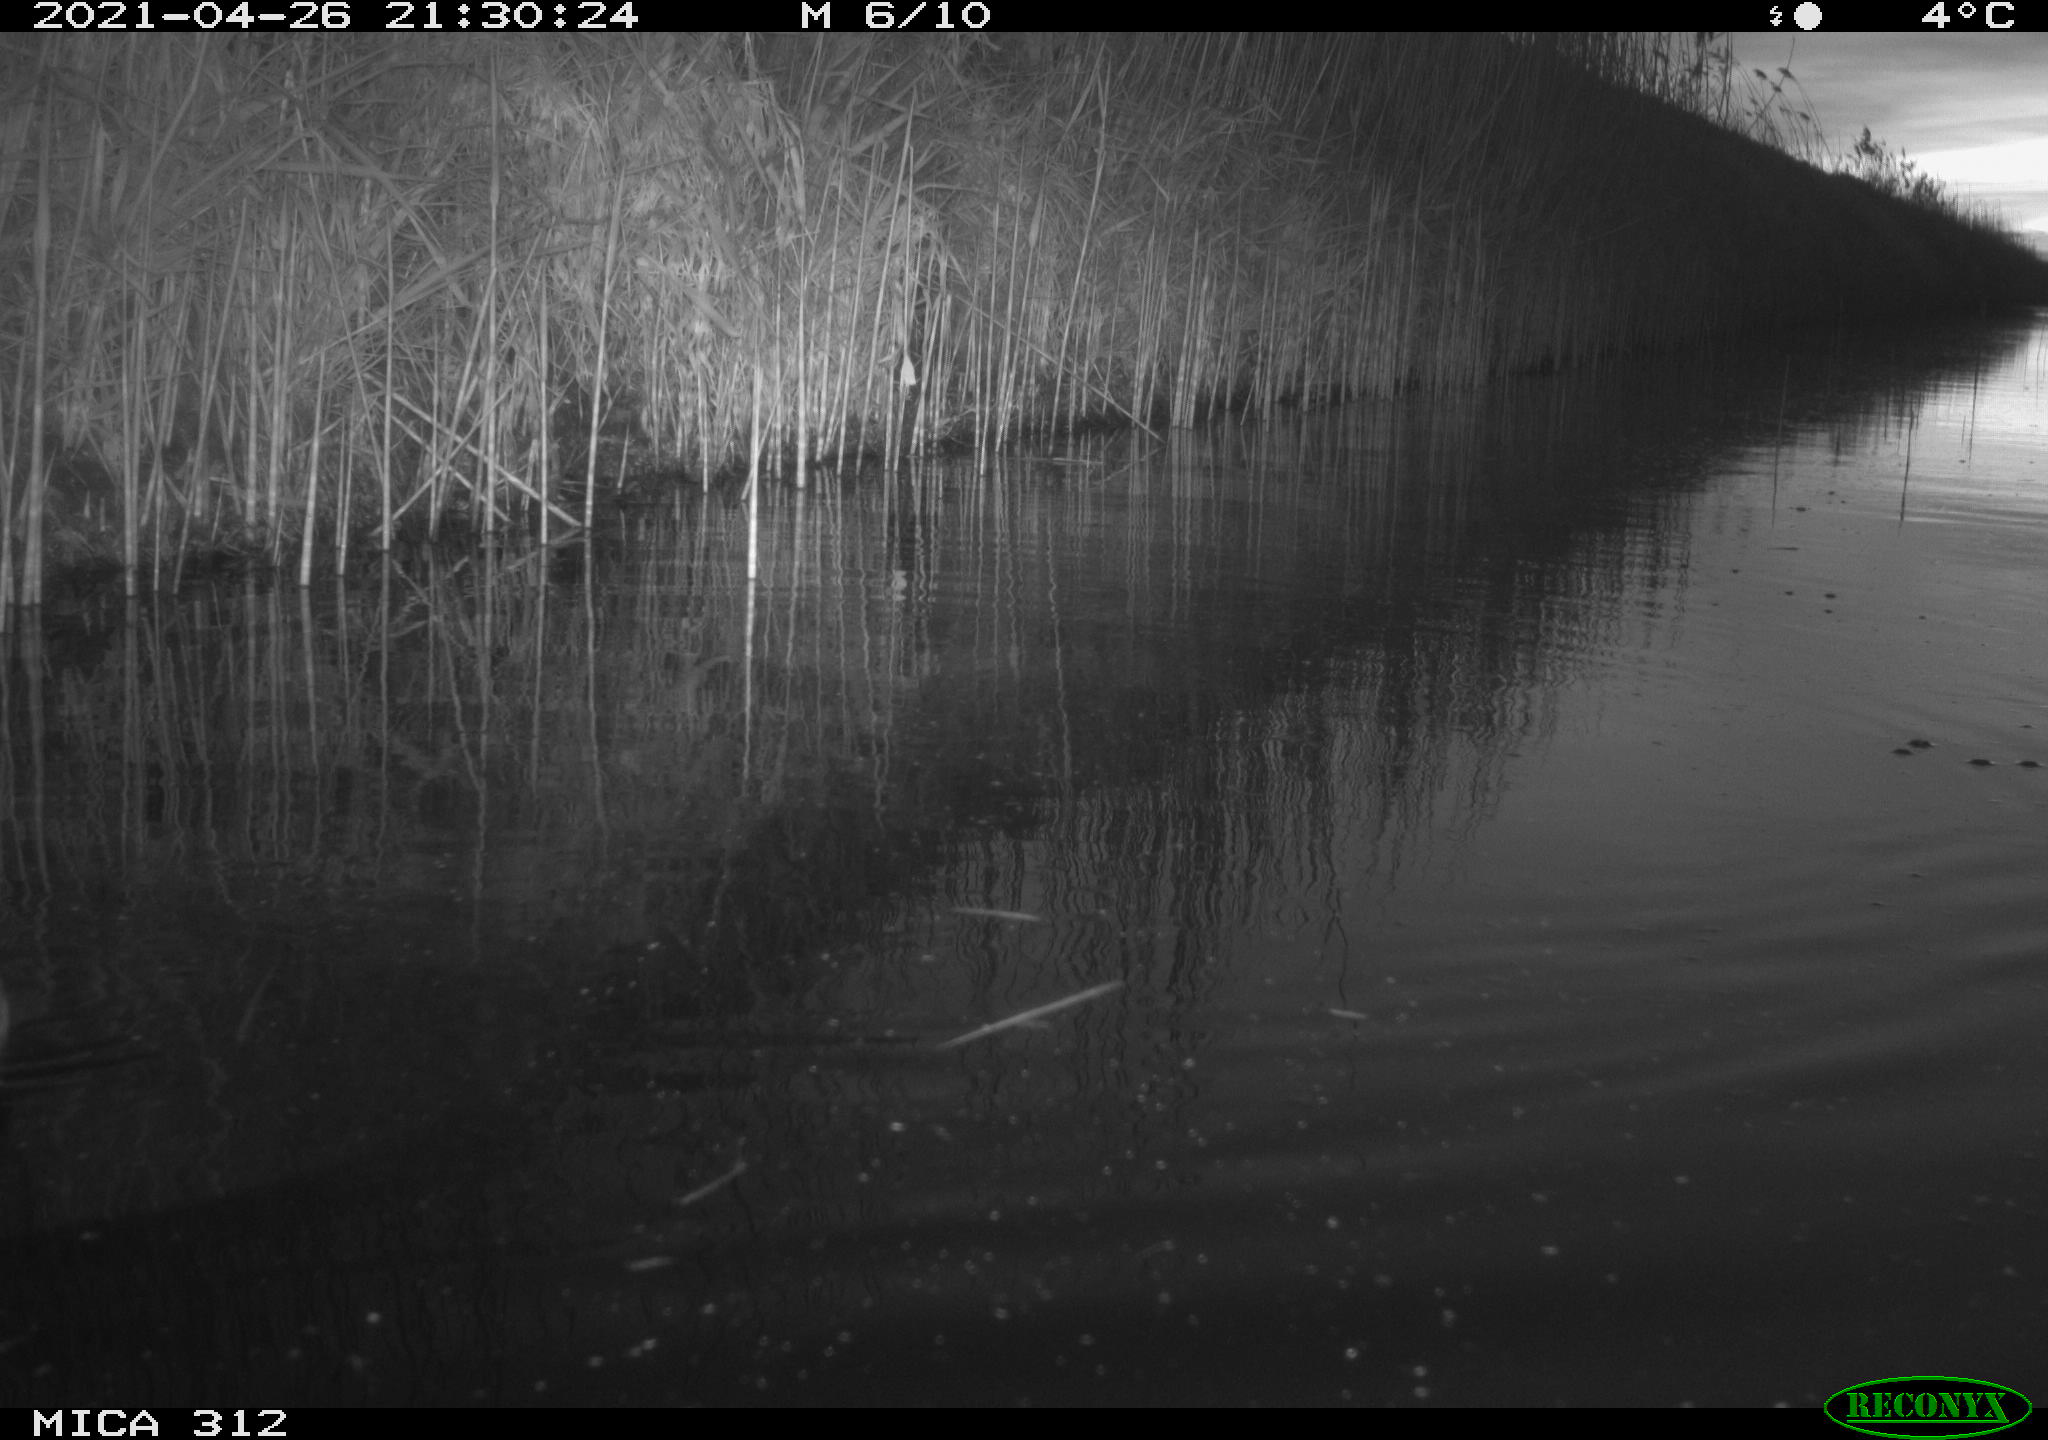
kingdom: Animalia
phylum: Chordata
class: Aves
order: Gruiformes
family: Rallidae
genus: Fulica
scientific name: Fulica atra
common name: Eurasian coot
